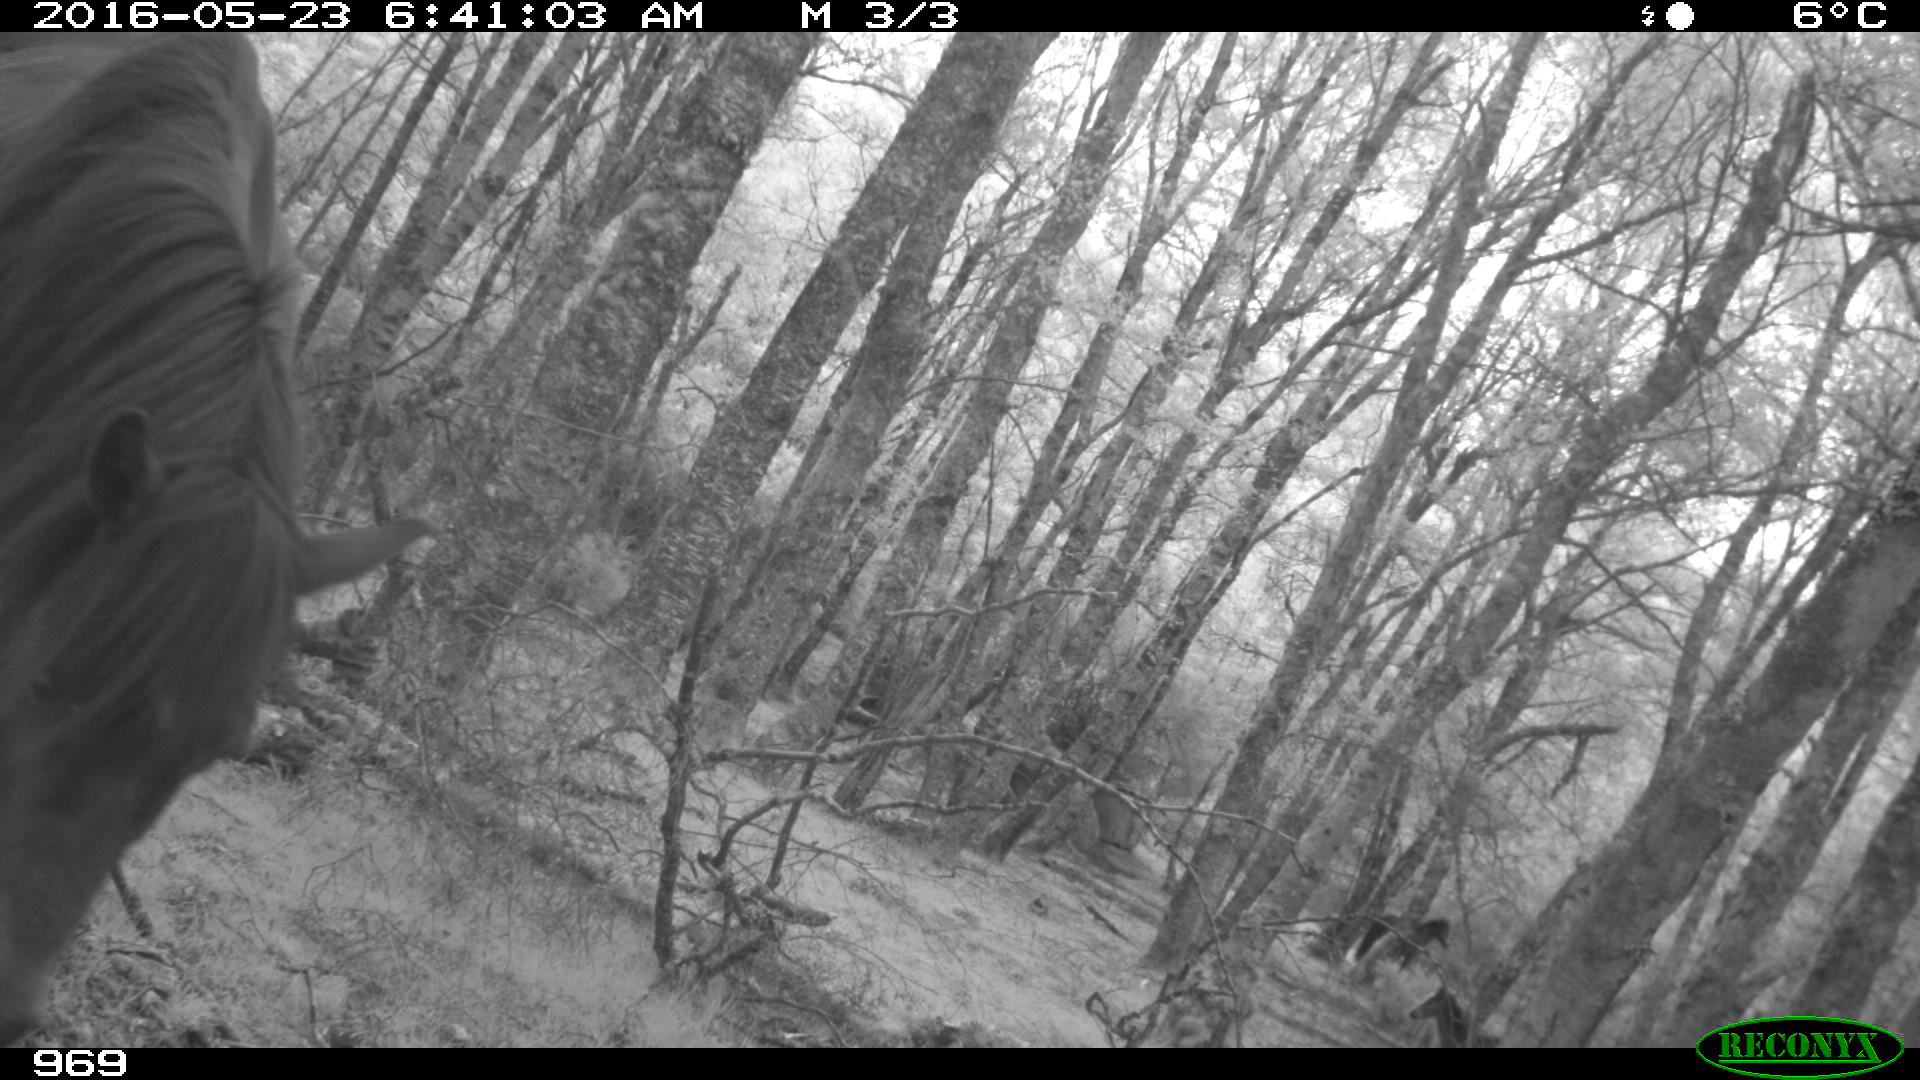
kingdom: Animalia
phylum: Chordata
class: Mammalia
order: Perissodactyla
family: Equidae
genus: Equus
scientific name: Equus caballus
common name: Horse
